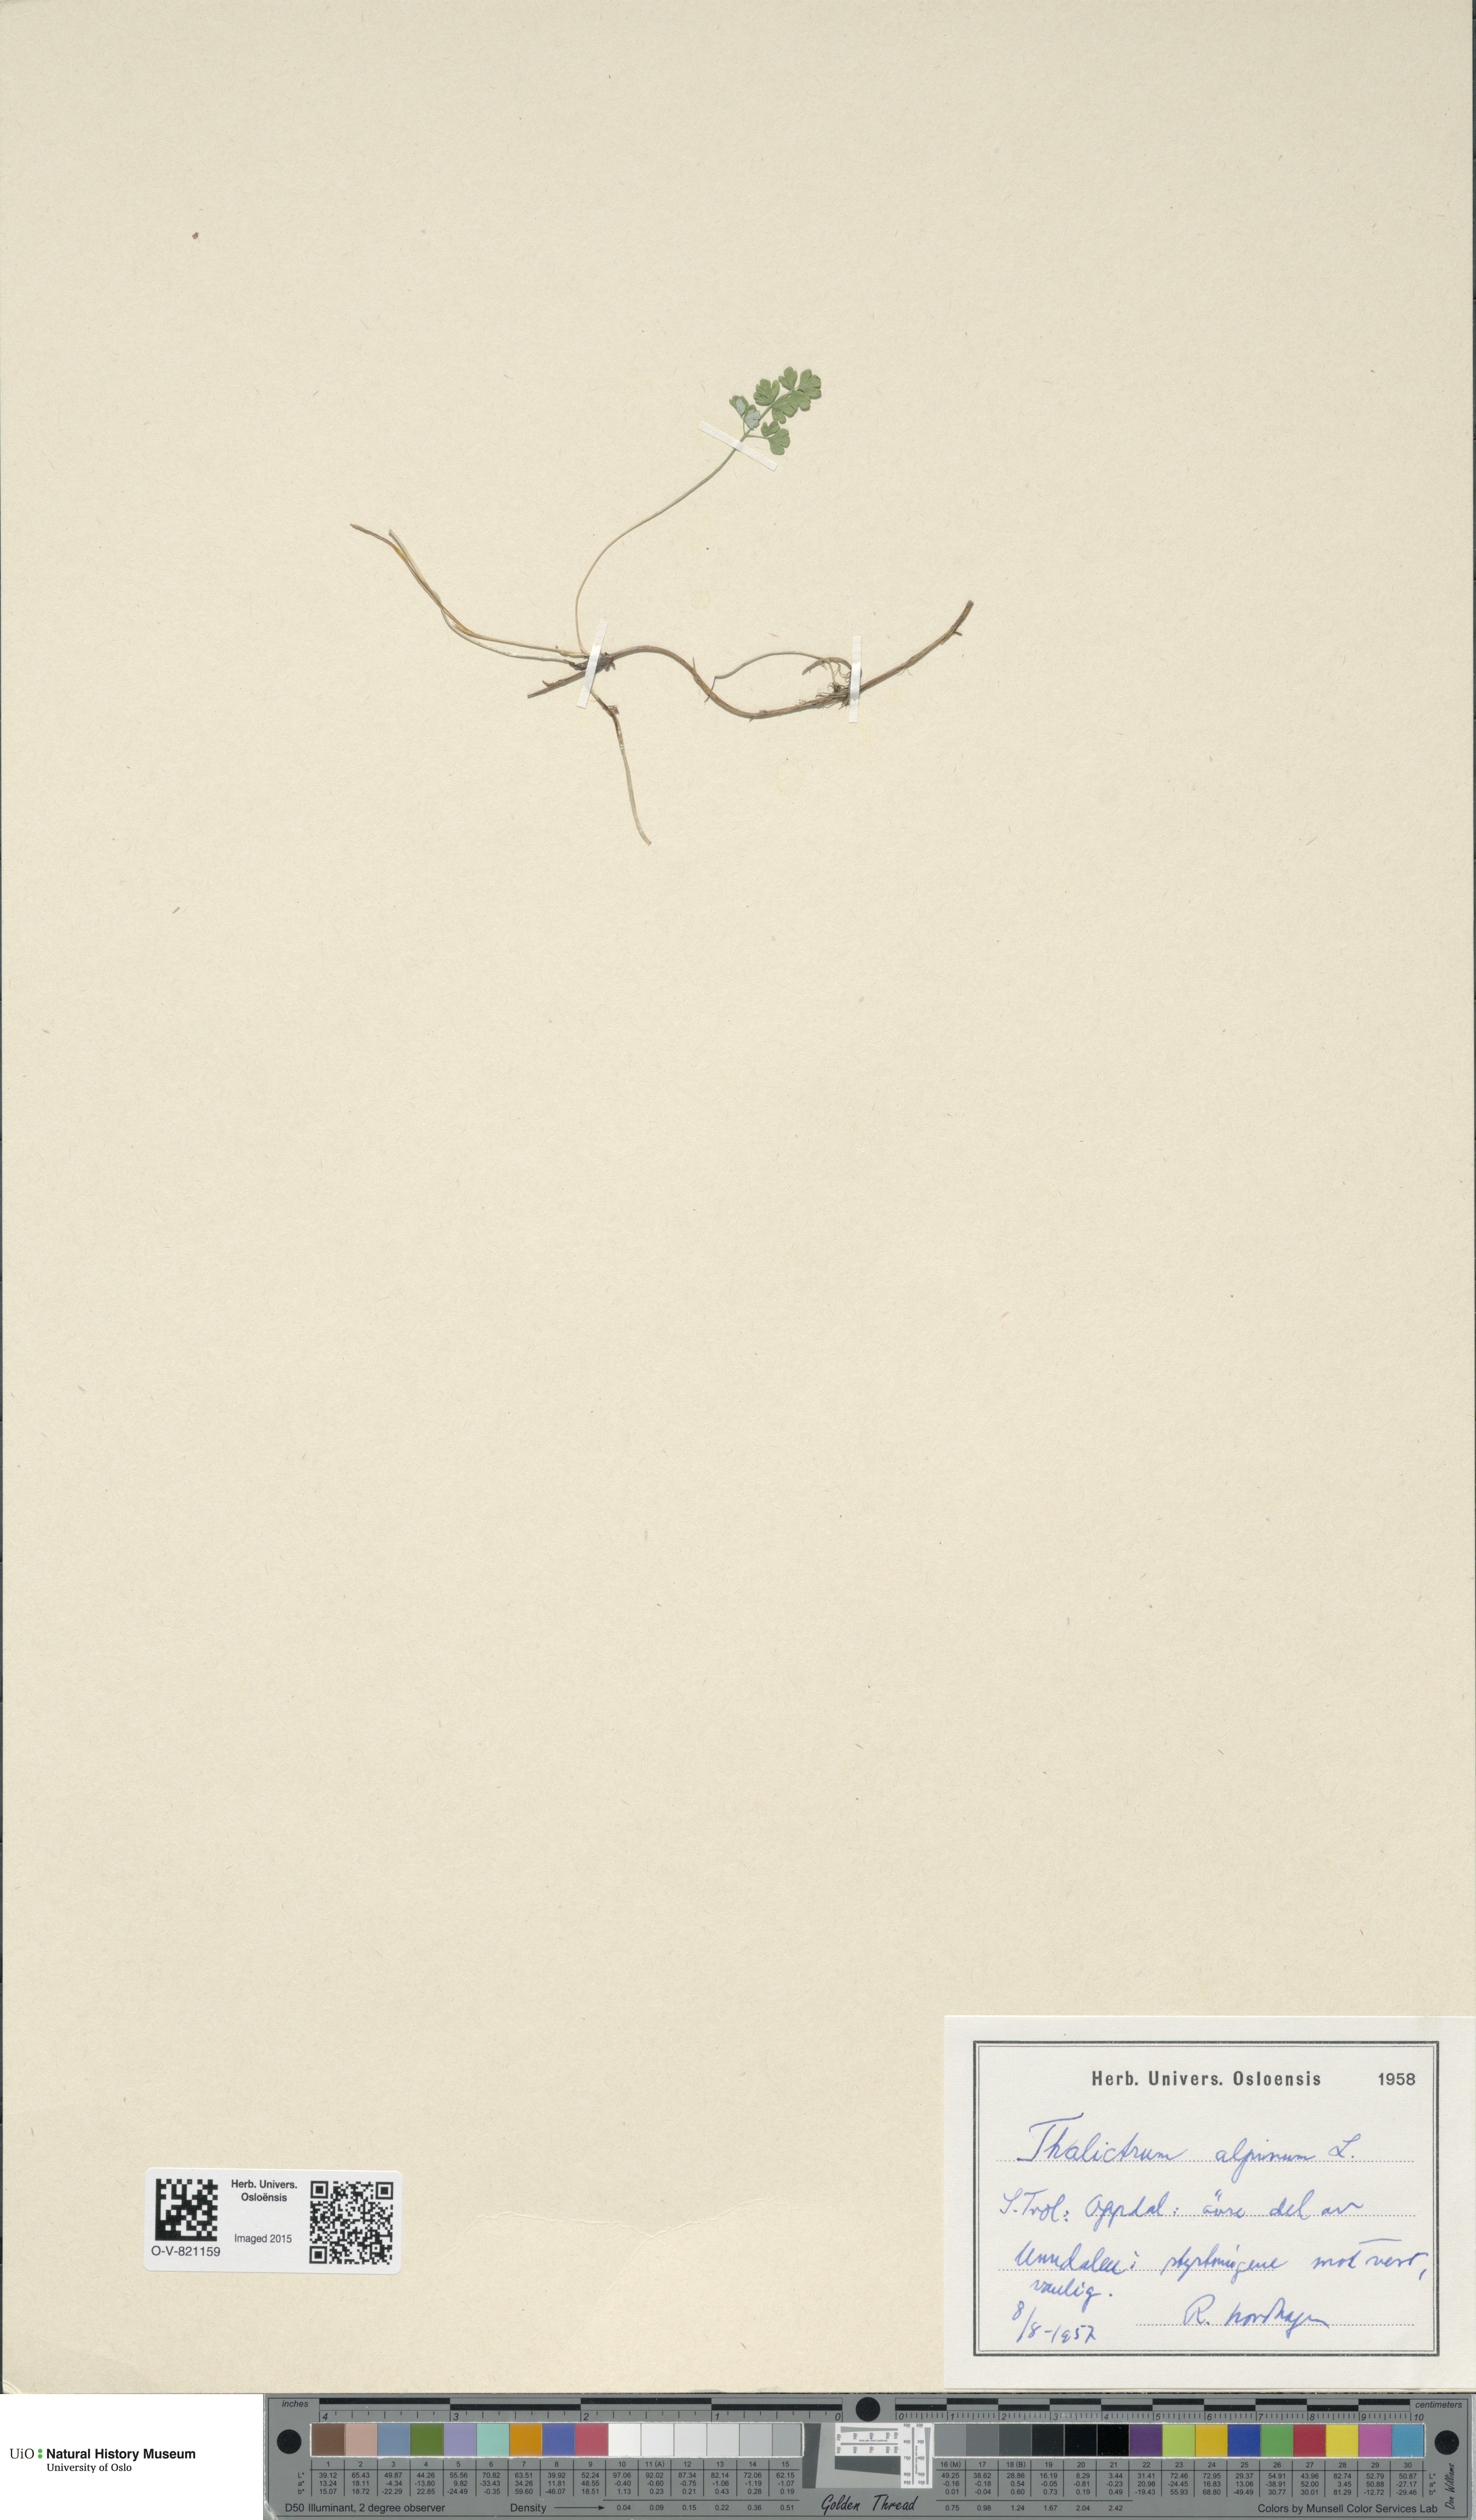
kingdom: Plantae
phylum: Tracheophyta
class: Magnoliopsida
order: Ranunculales
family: Ranunculaceae
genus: Thalictrum
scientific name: Thalictrum alpinum
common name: Alpine meadow-rue
